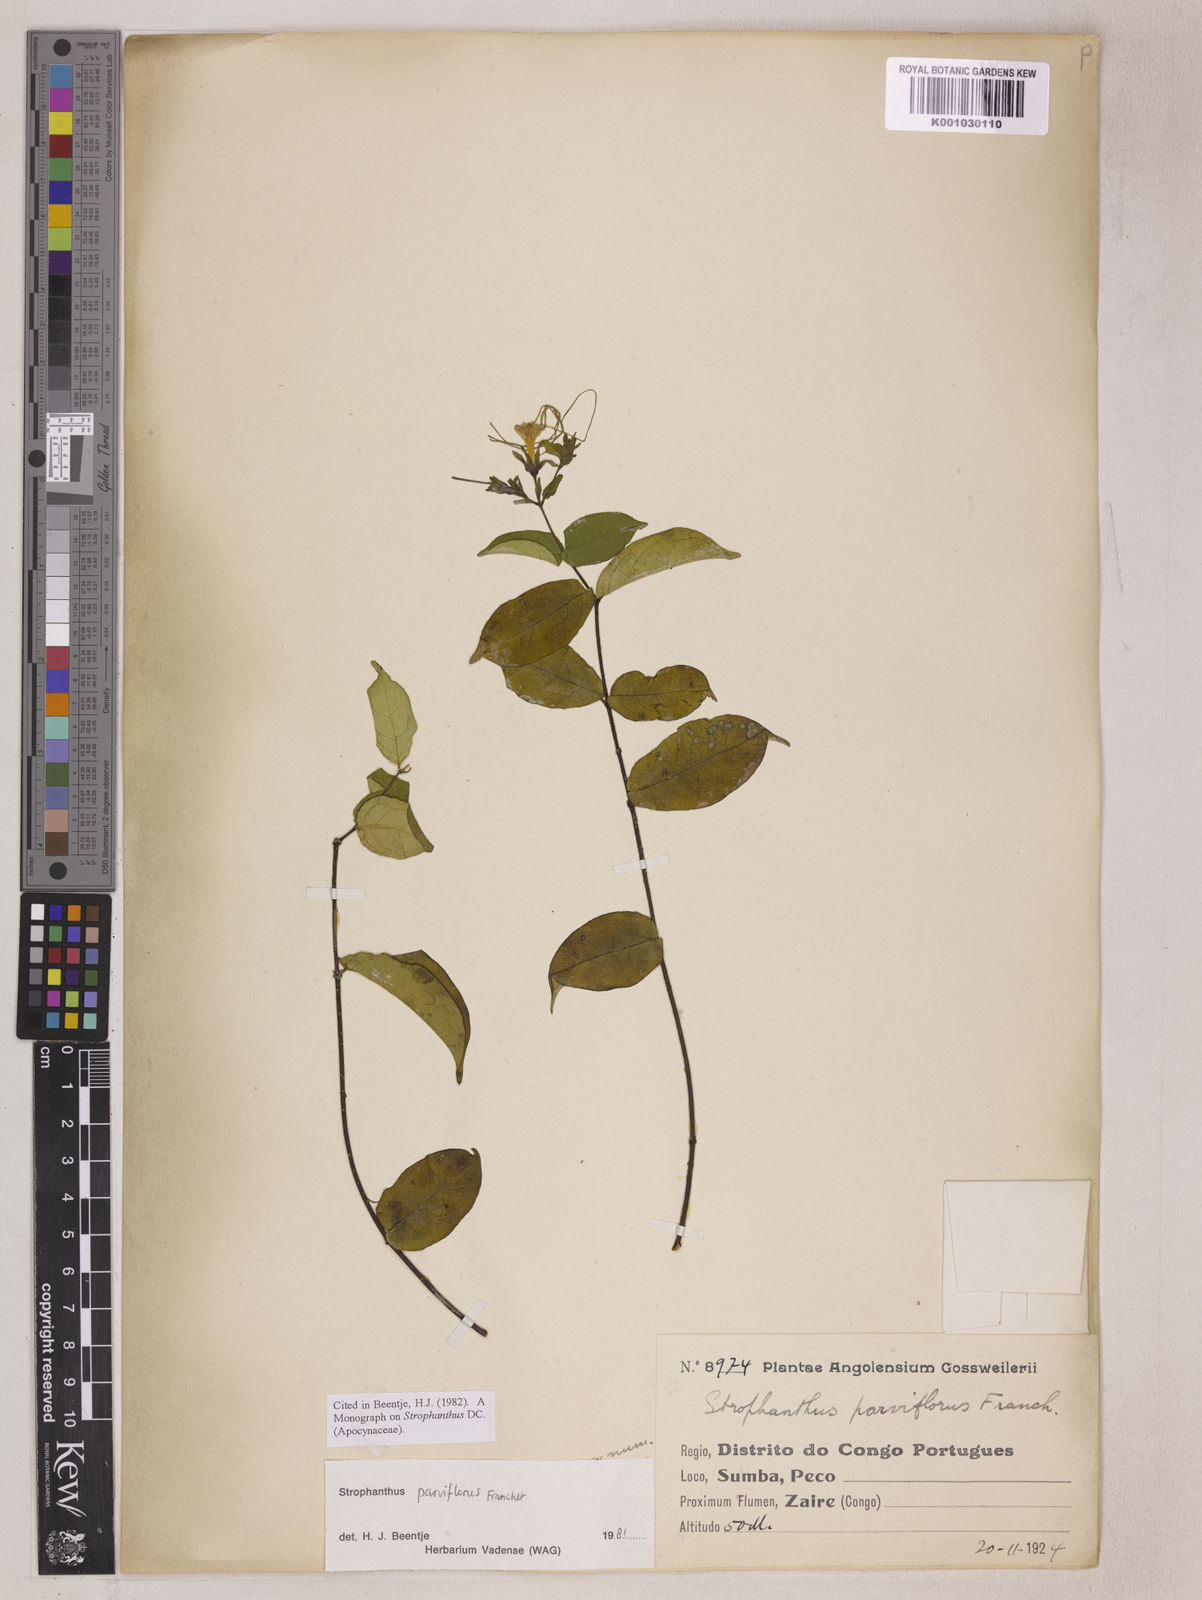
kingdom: Plantae
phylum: Tracheophyta
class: Magnoliopsida
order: Gentianales
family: Apocynaceae
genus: Strophanthus
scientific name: Strophanthus parviflorus
